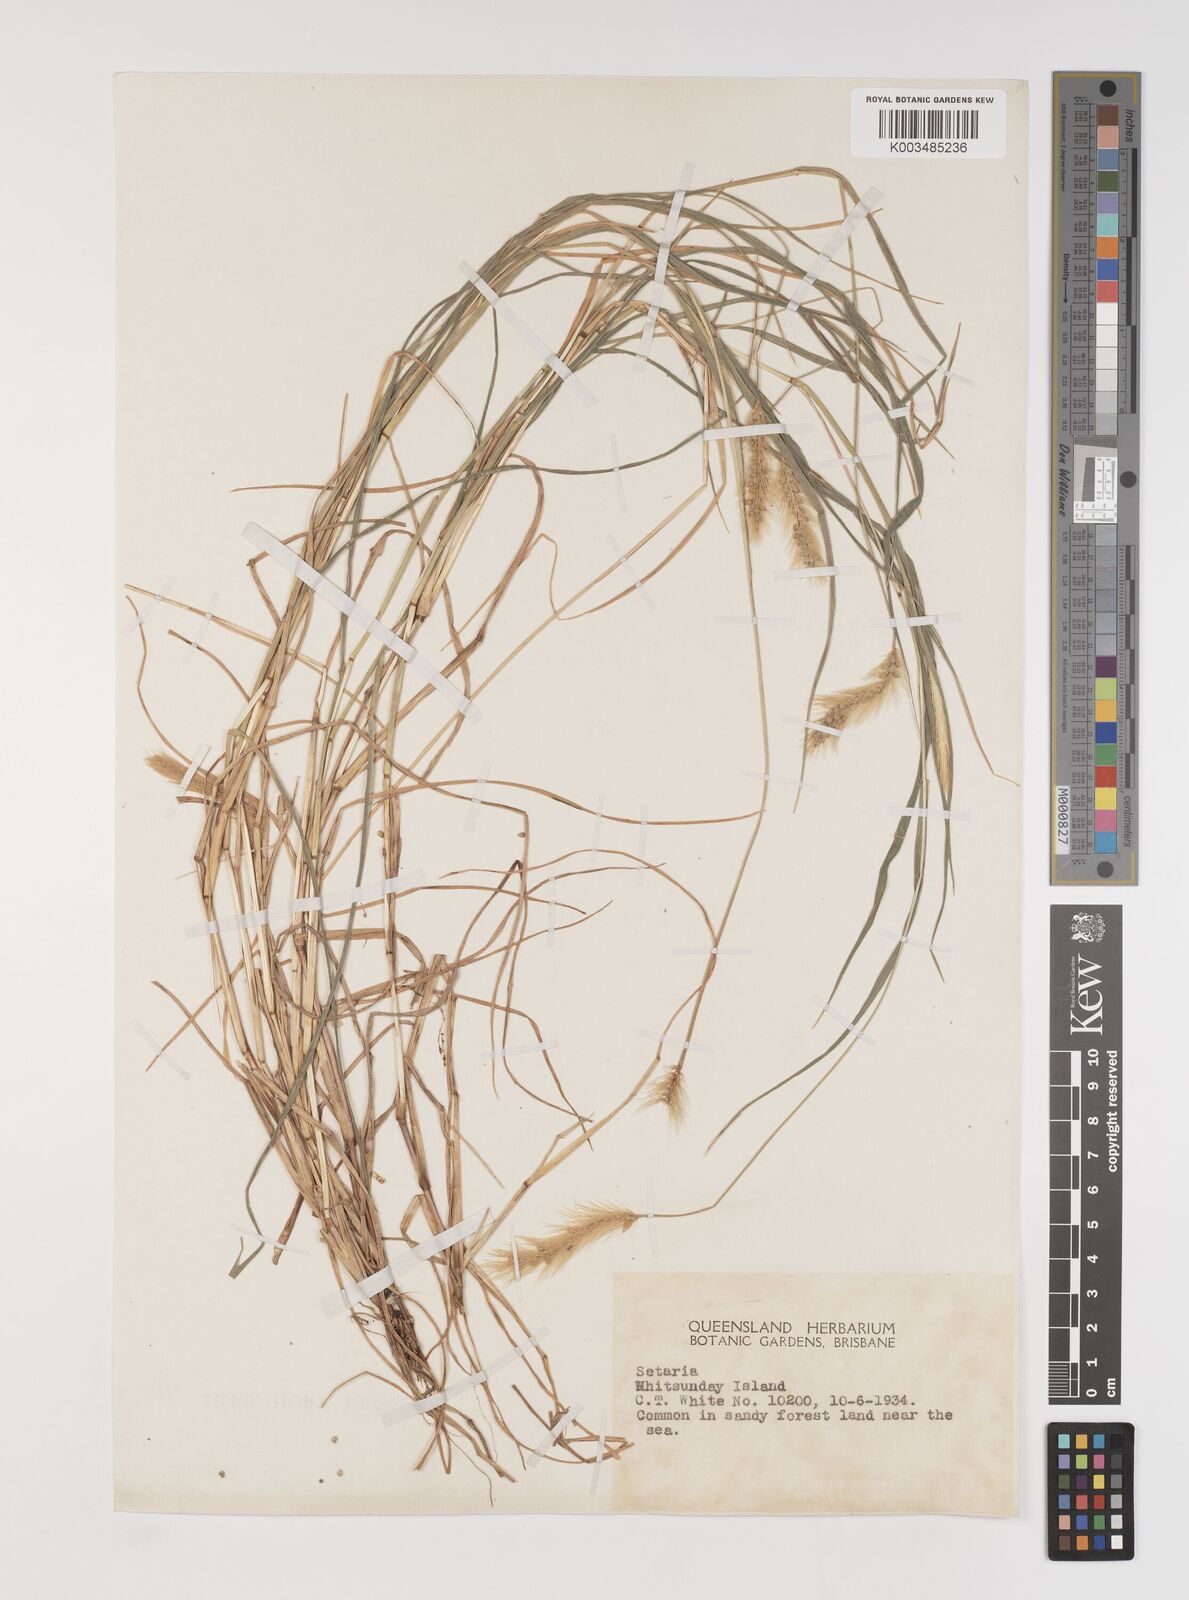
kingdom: Plantae
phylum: Tracheophyta
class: Liliopsida
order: Poales
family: Poaceae
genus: Setaria
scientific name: Setaria surgens
